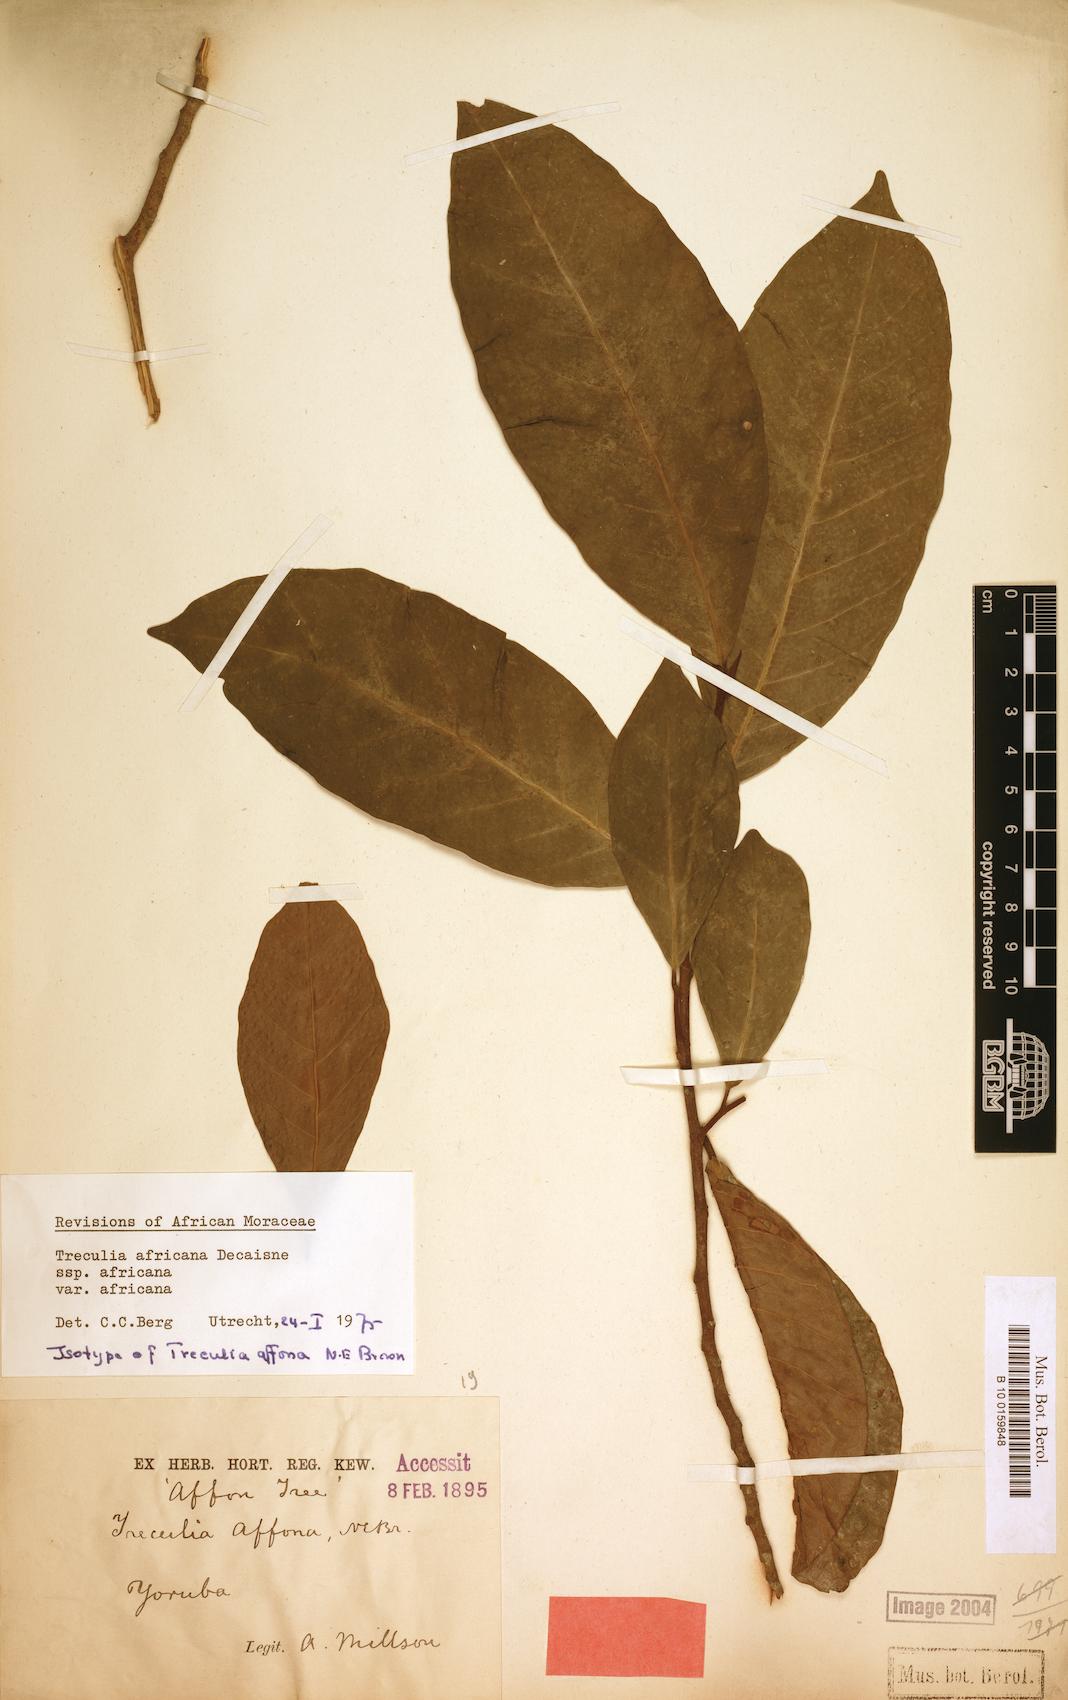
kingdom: Plantae
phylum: Tracheophyta
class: Magnoliopsida
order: Rosales
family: Moraceae
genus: Treculia
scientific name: Treculia africana
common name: African breadfruit
